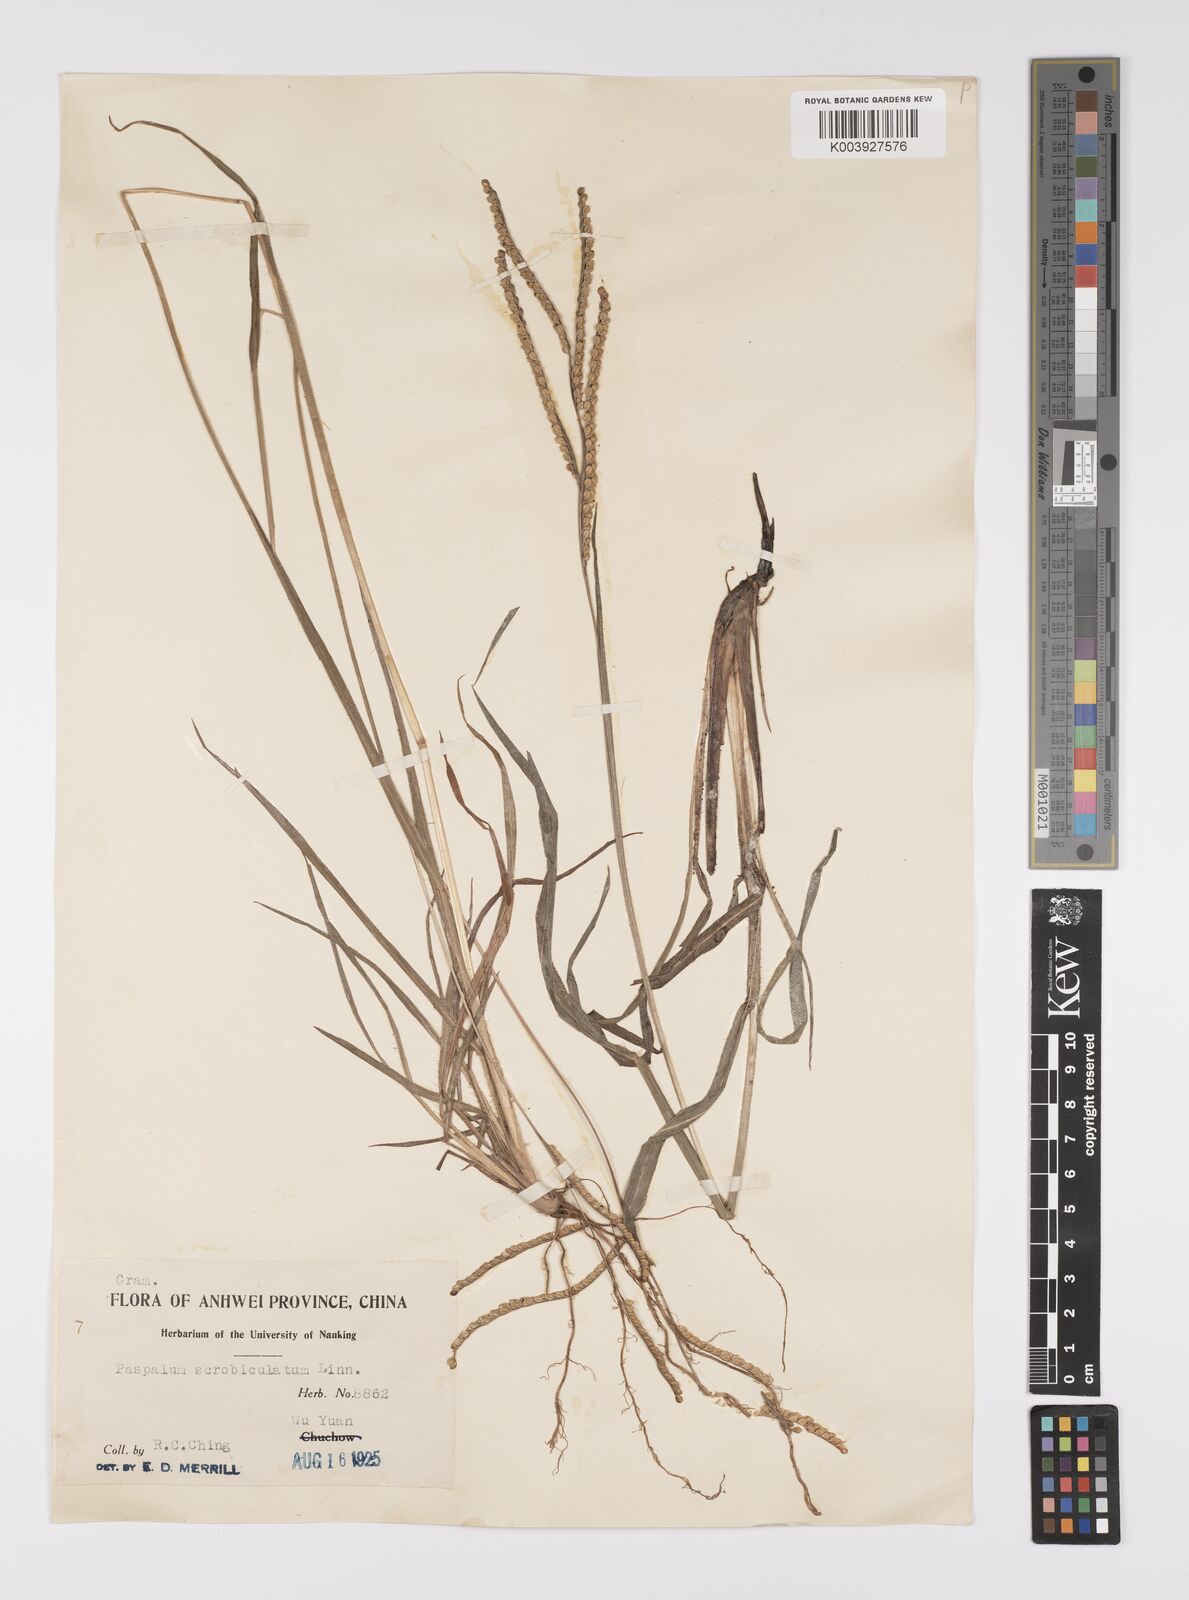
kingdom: Plantae
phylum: Tracheophyta
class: Liliopsida
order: Poales
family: Poaceae
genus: Paspalum
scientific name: Paspalum thunbergii
